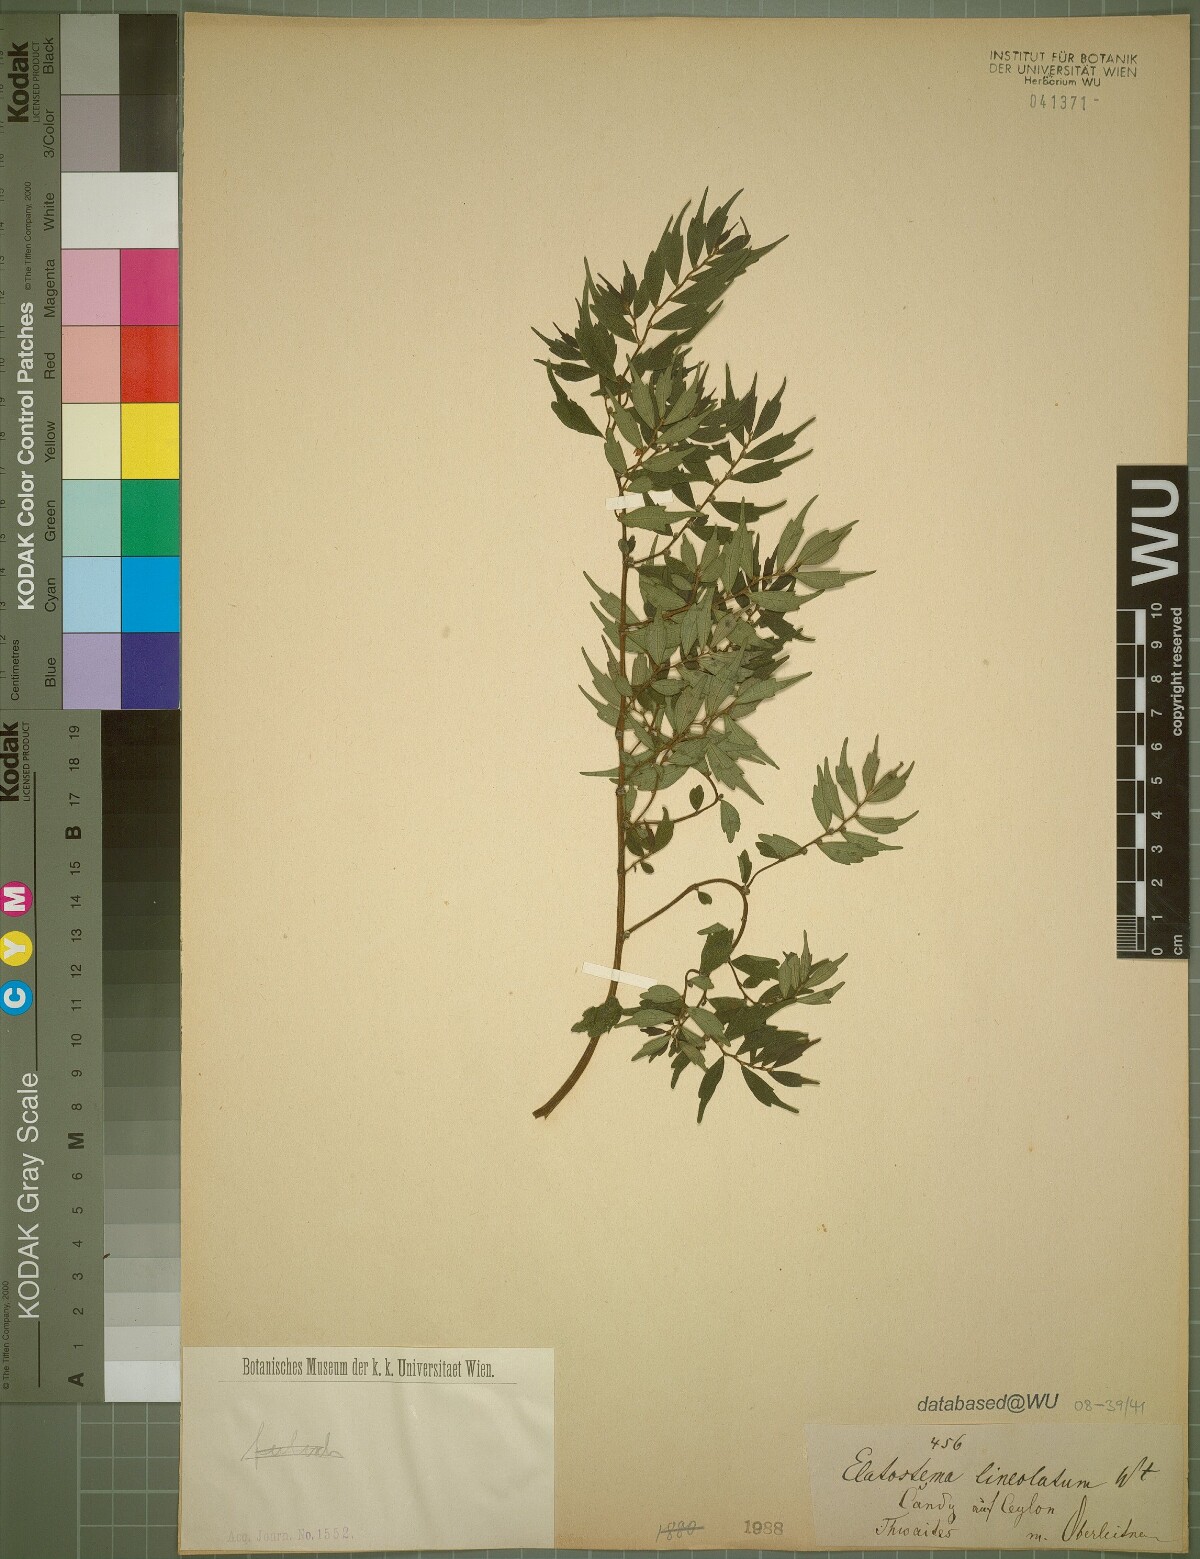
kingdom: Plantae
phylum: Tracheophyta
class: Magnoliopsida
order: Rosales
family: Urticaceae
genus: Elatostema
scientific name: Elatostema lineolatum
